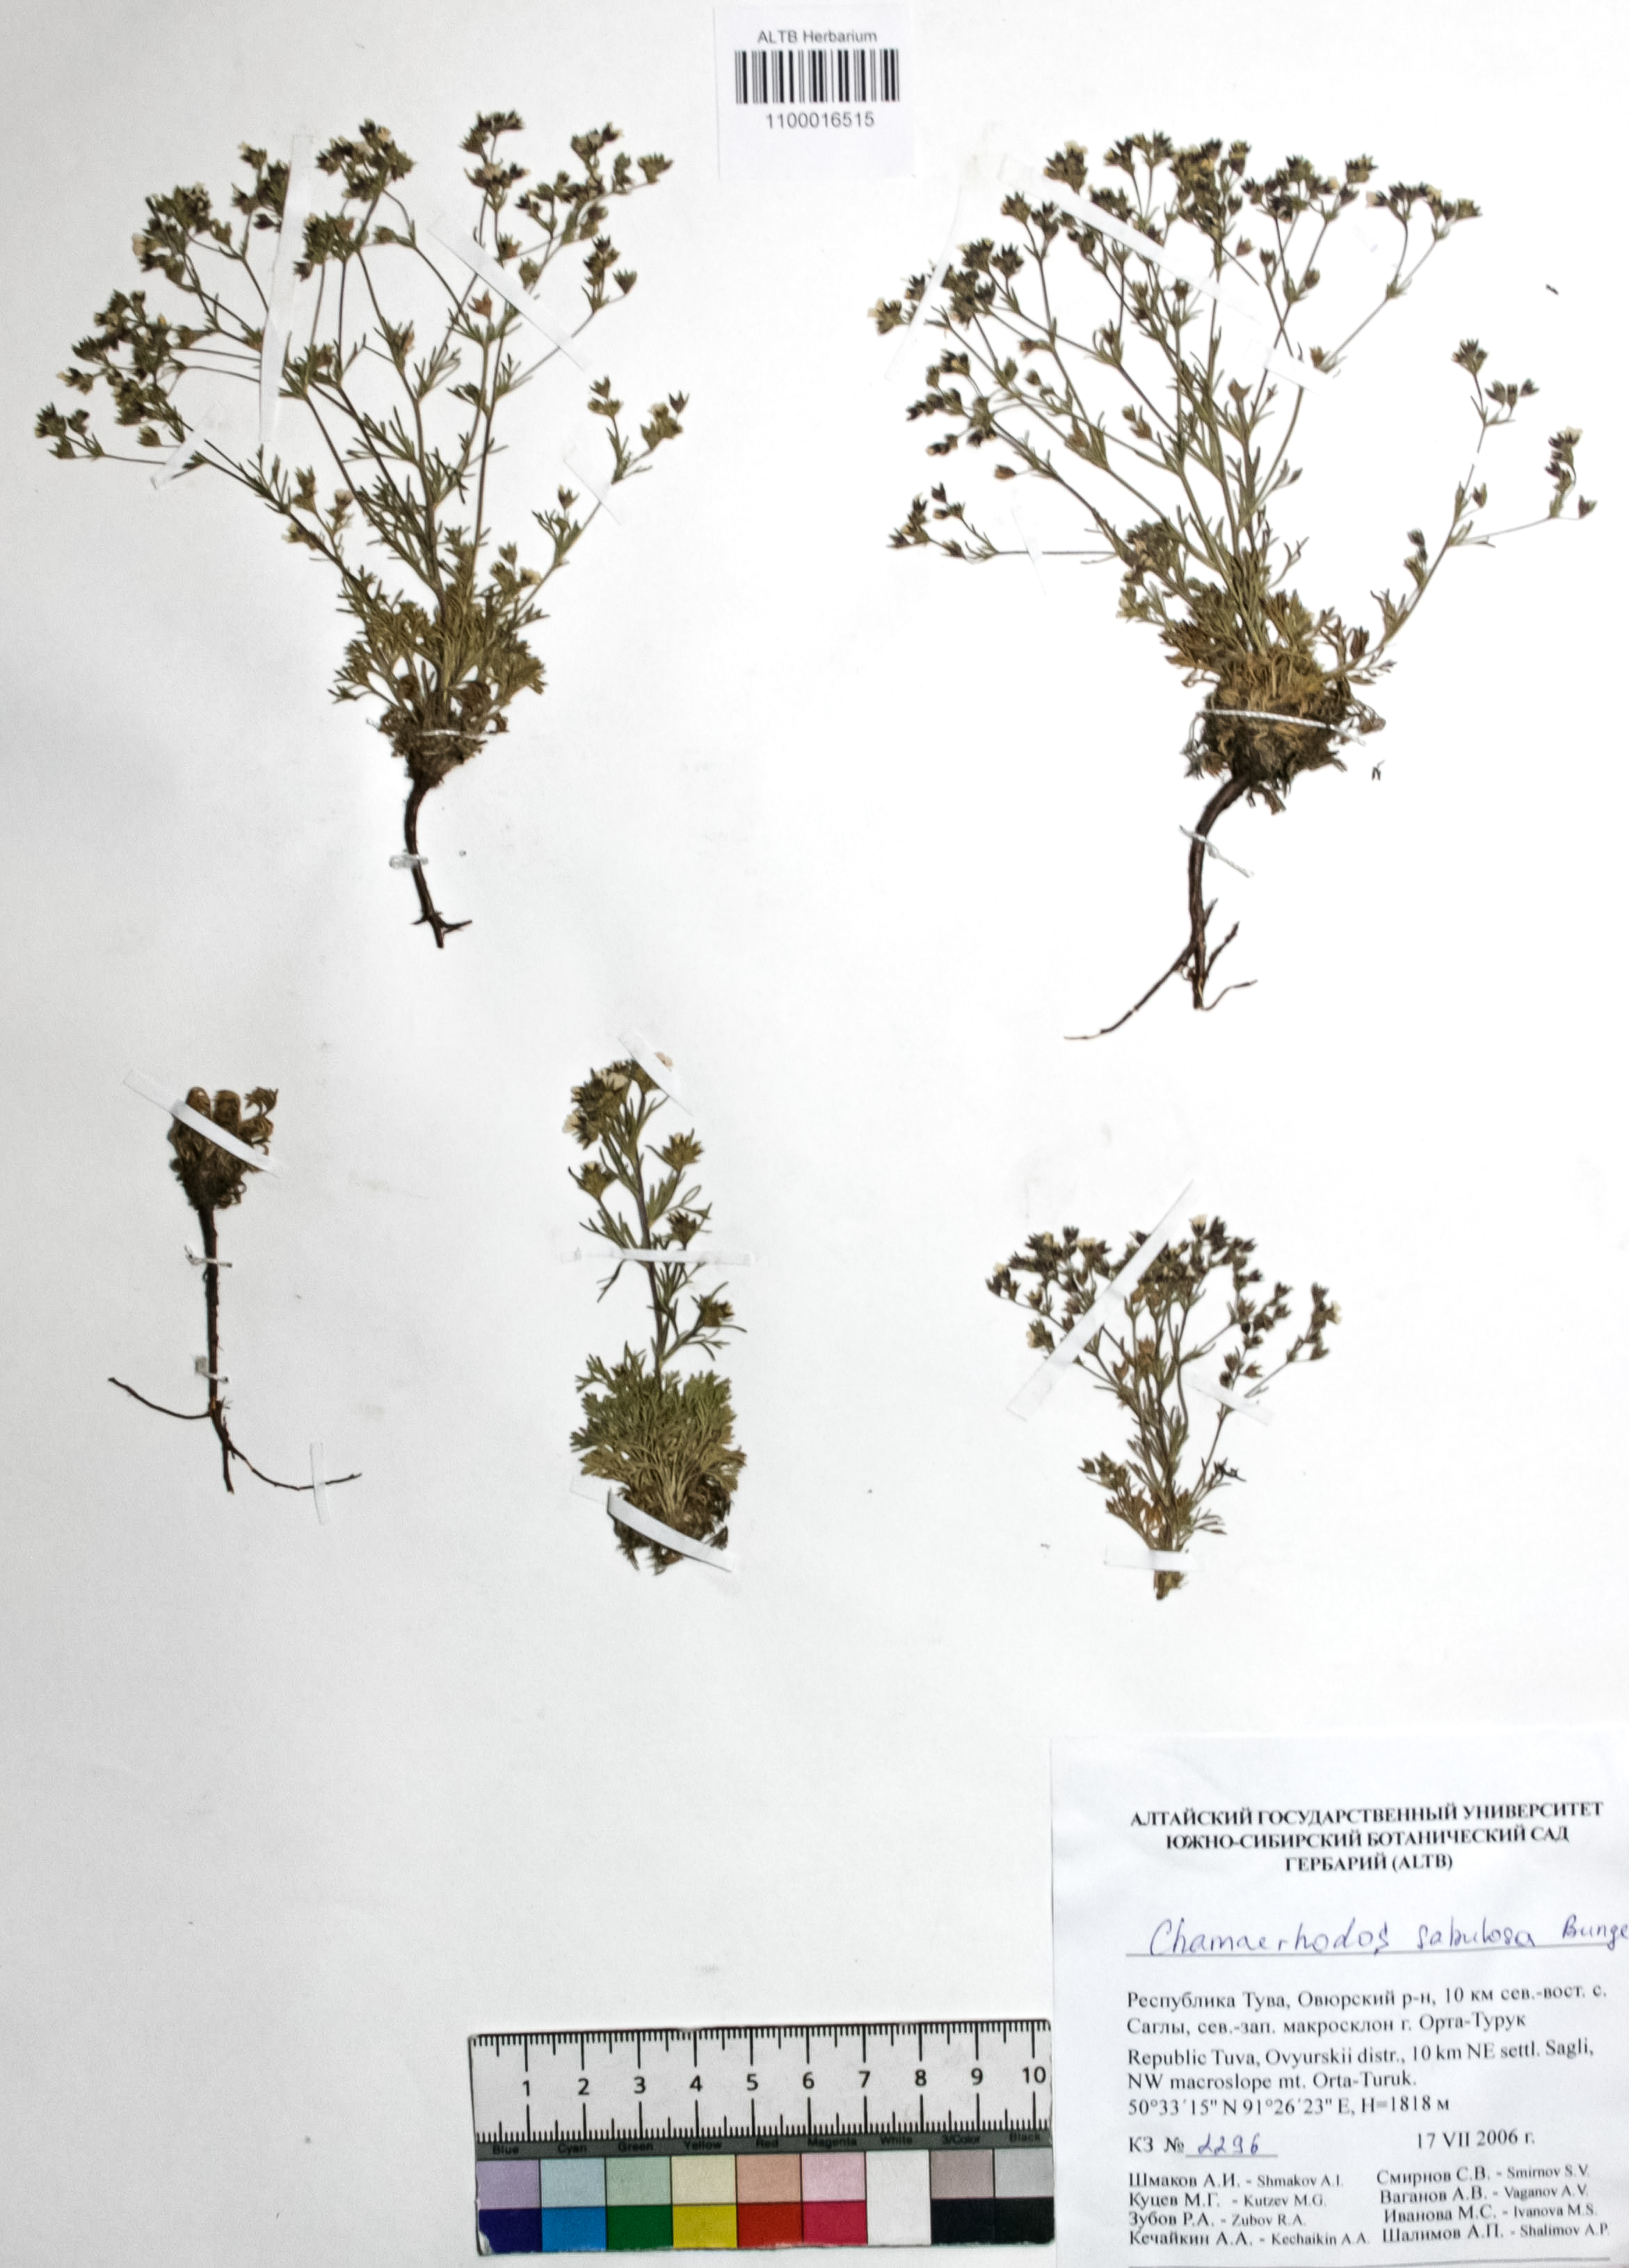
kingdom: Plantae
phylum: Tracheophyta
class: Magnoliopsida
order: Rosales
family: Rosaceae
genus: Chamaerhodos
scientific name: Chamaerhodos sabulosa
